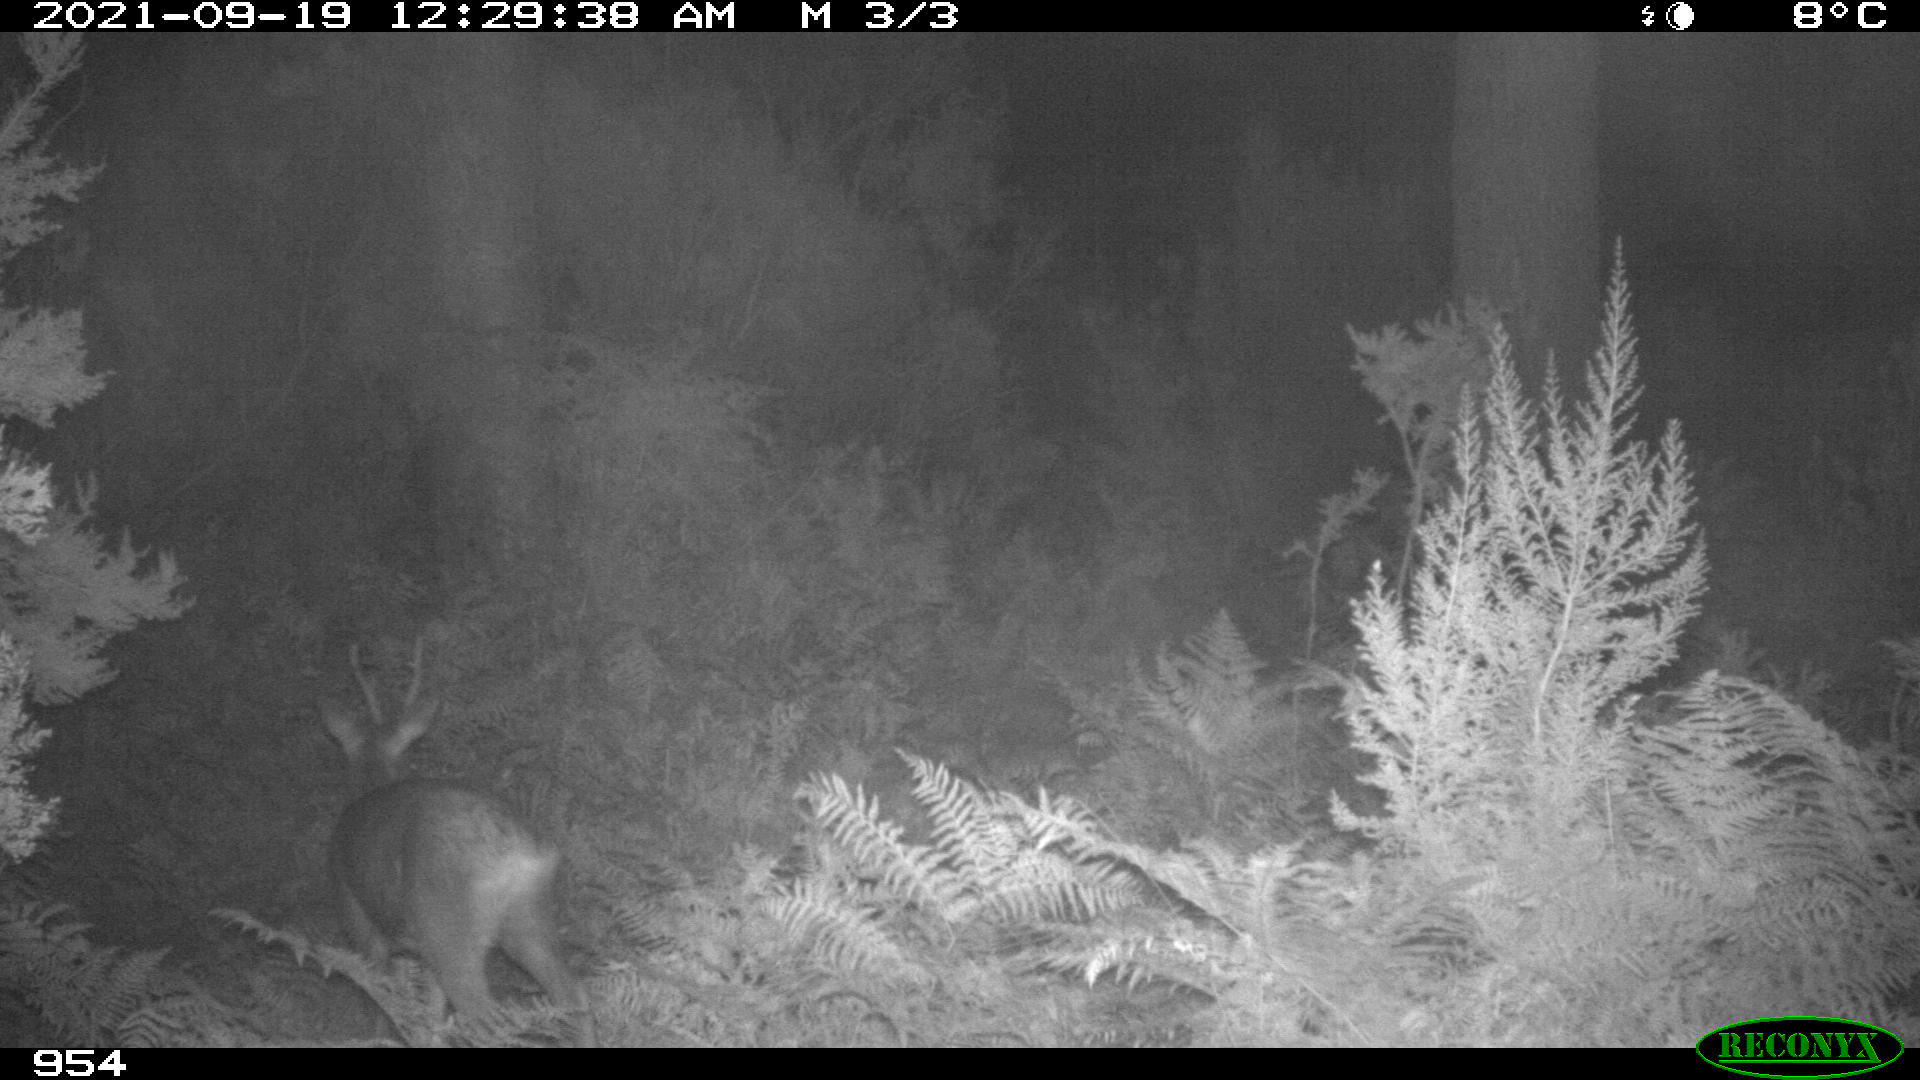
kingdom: Animalia
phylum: Chordata
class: Mammalia
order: Artiodactyla
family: Cervidae
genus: Capreolus
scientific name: Capreolus capreolus
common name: Western roe deer
